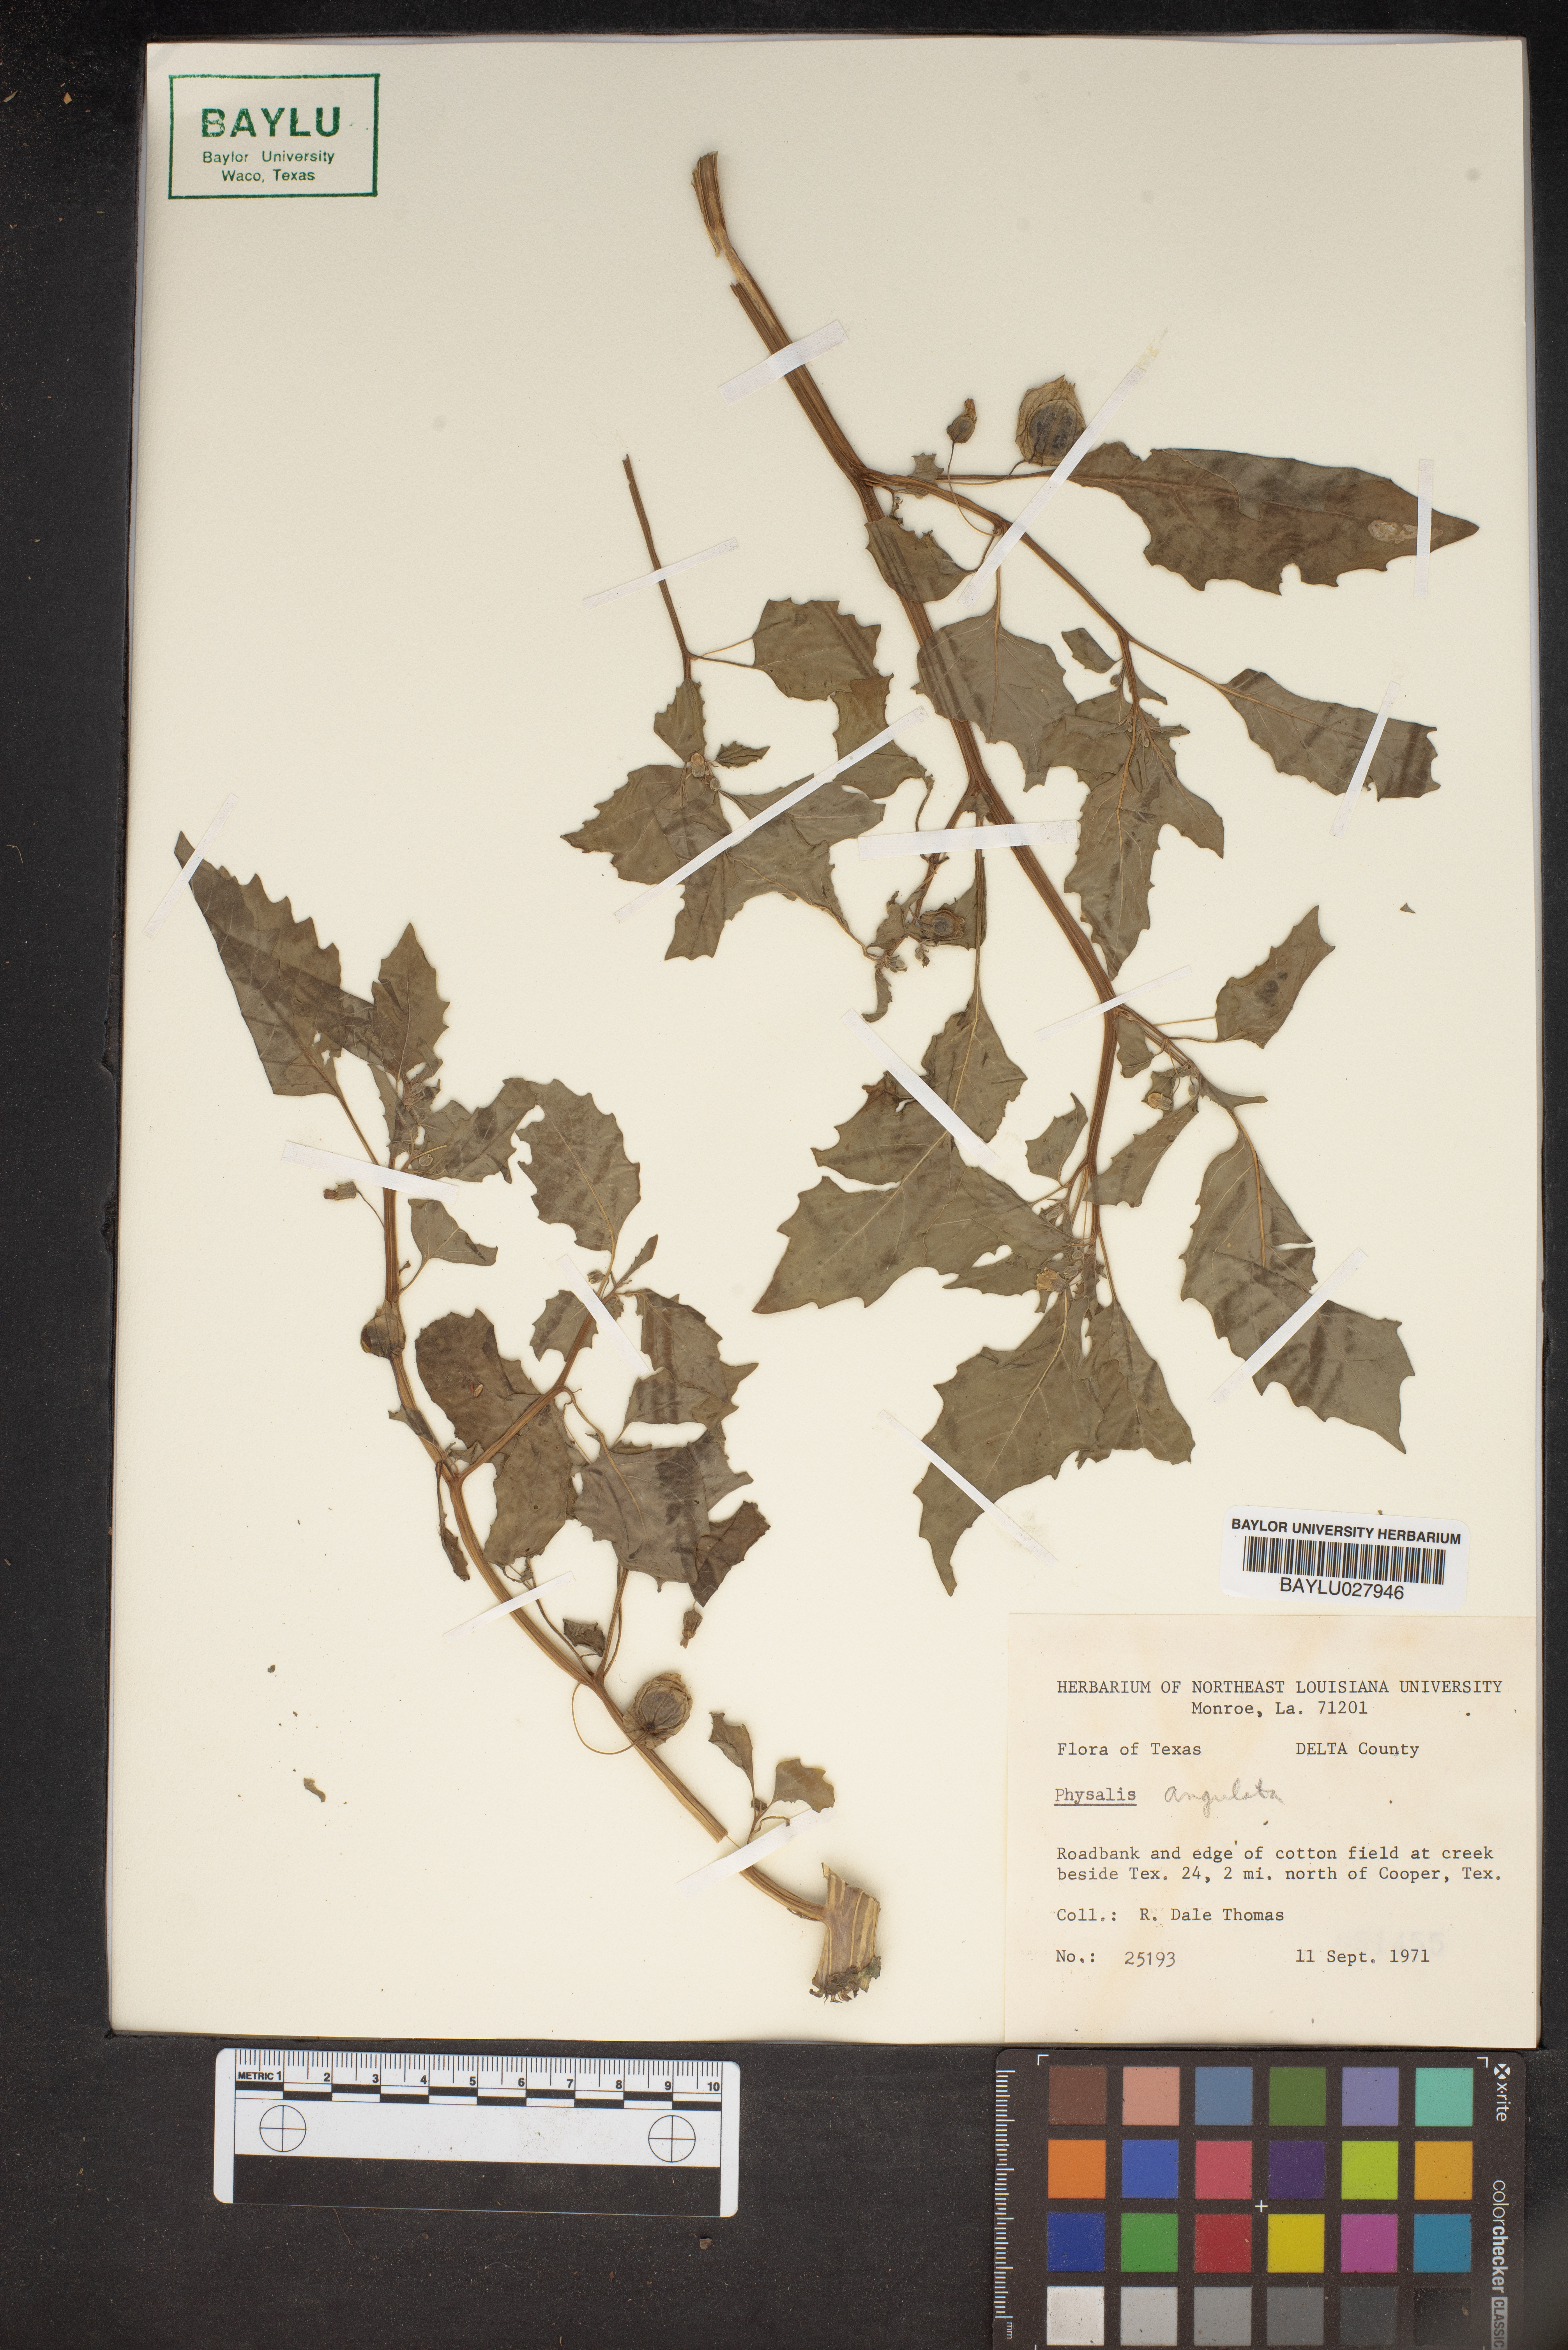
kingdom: Plantae
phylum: Tracheophyta
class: Magnoliopsida
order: Solanales
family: Solanaceae
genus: Physalis
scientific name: Physalis angulata
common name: Angular winter-cherry
